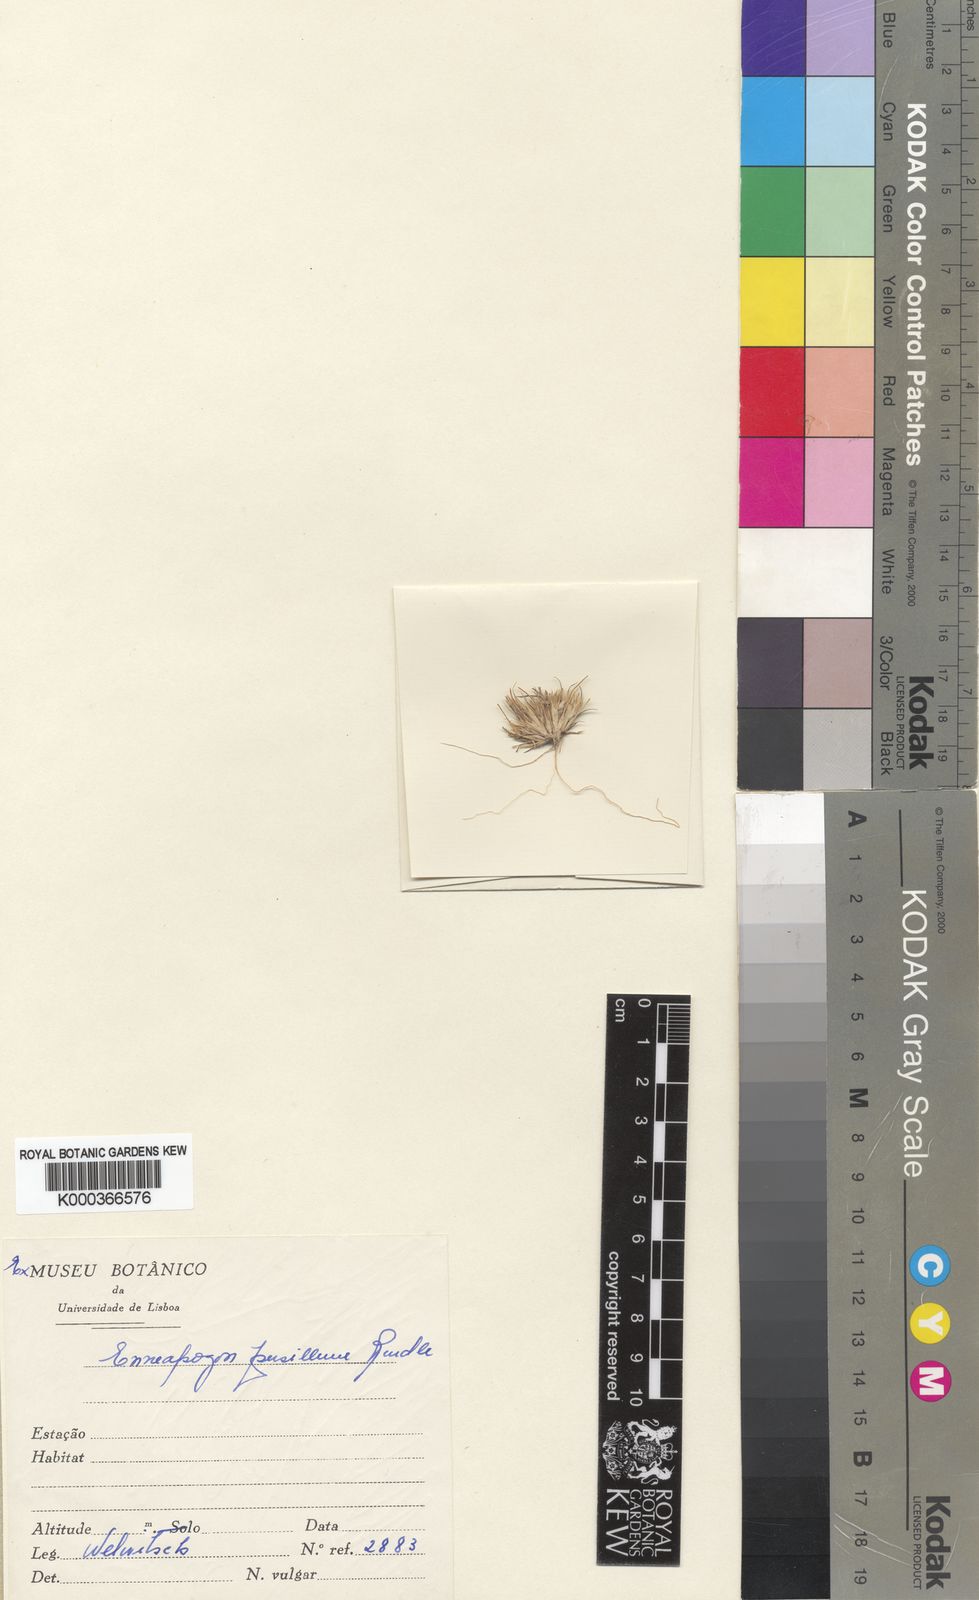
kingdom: Plantae
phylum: Tracheophyta
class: Liliopsida
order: Poales
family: Poaceae
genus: Enneapogon
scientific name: Enneapogon desvauxii
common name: Feather pappus grass
